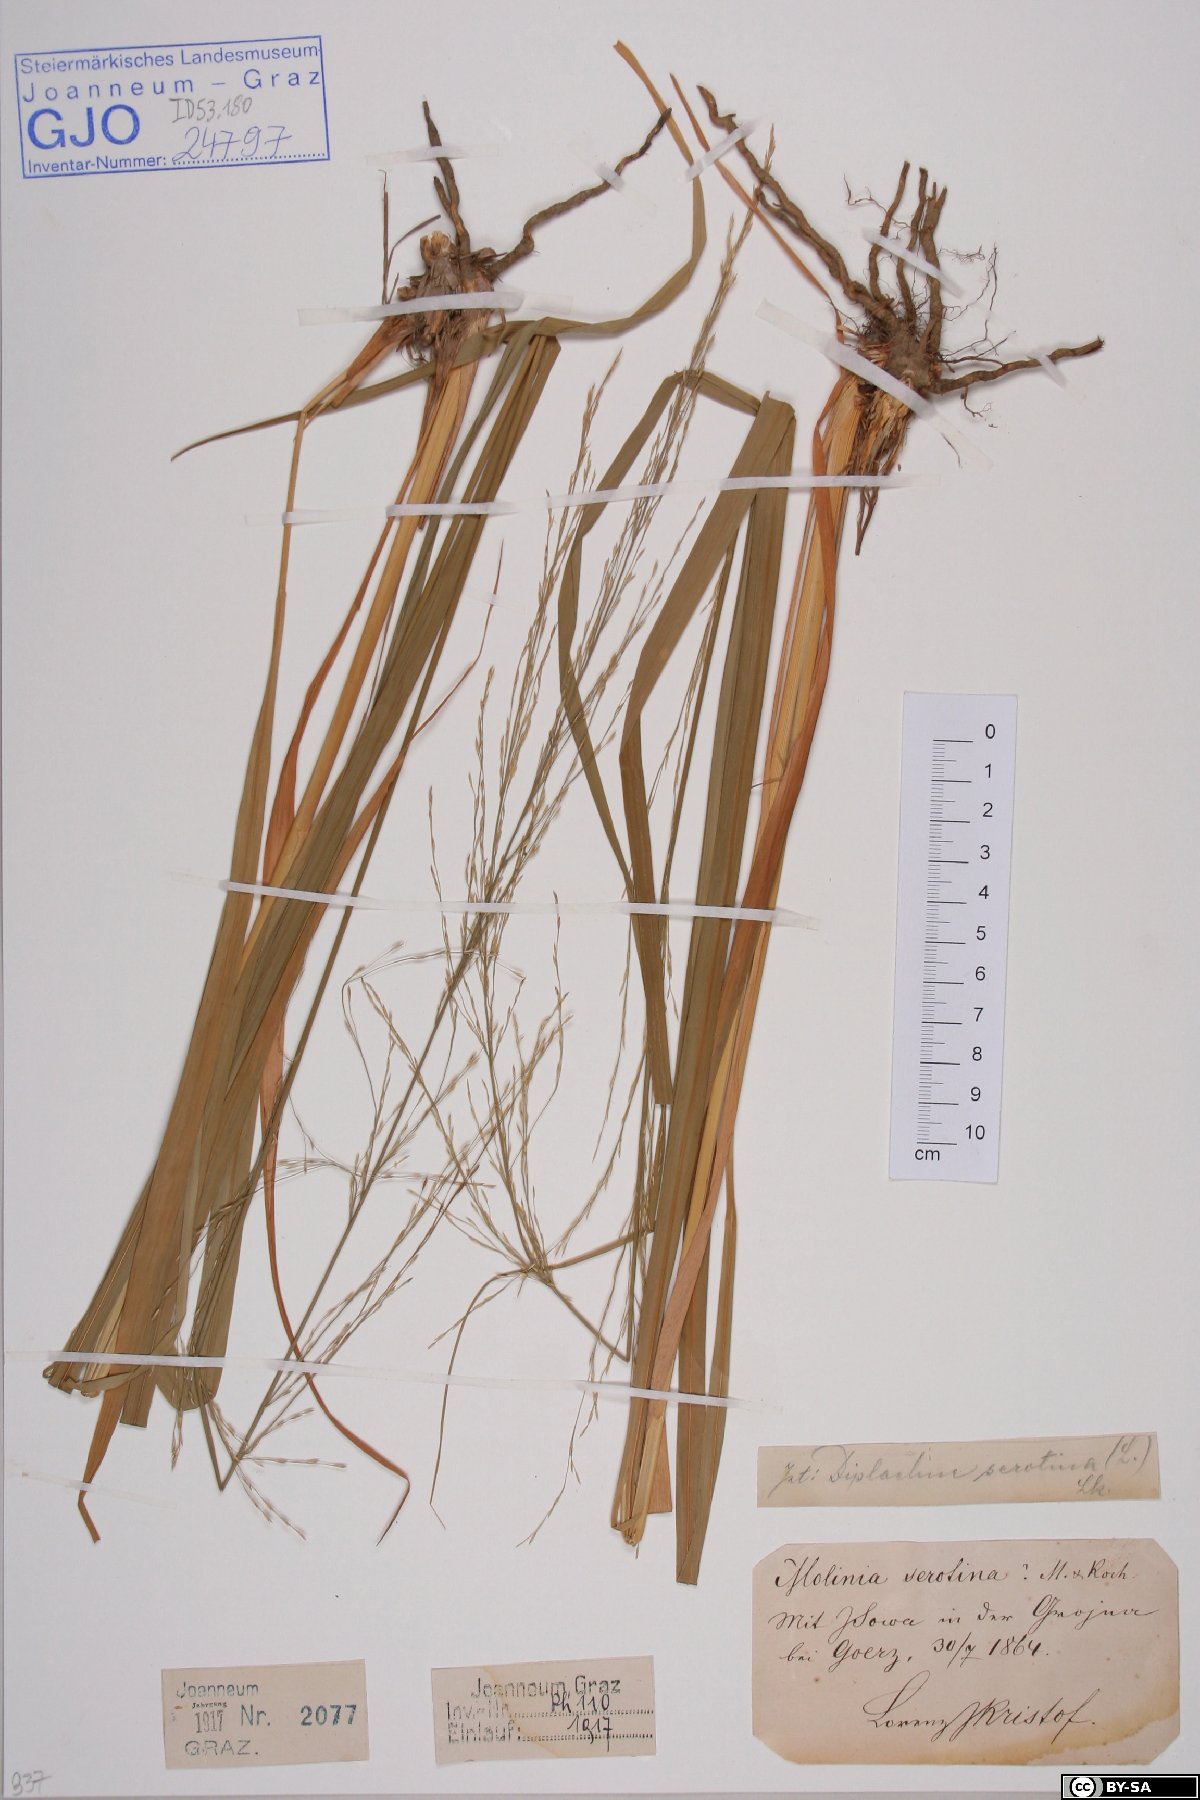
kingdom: Plantae
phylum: Tracheophyta
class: Liliopsida
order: Poales
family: Poaceae
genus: Cleistogenes
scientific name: Cleistogenes serotina
